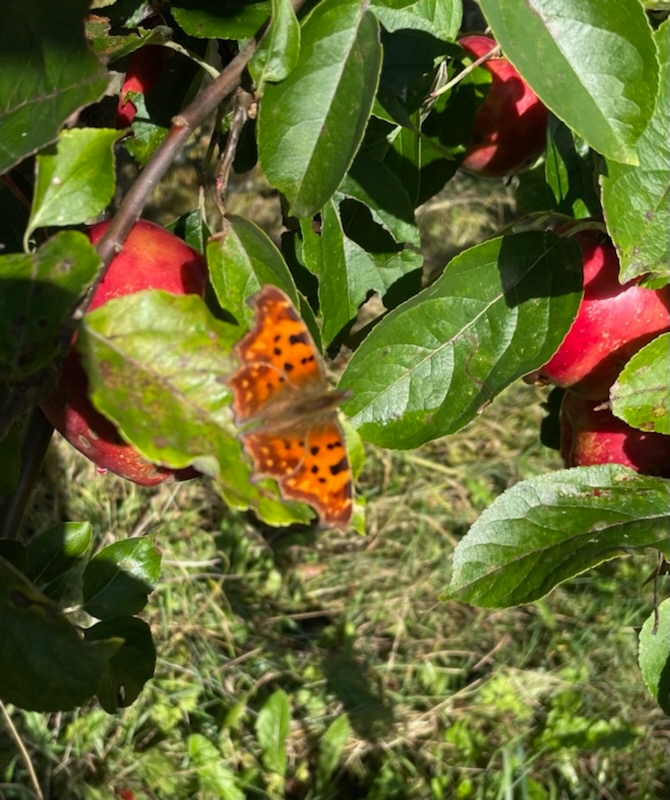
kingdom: Animalia
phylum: Arthropoda
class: Insecta
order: Lepidoptera
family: Nymphalidae
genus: Polygonia
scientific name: Polygonia c-album
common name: Det hvide C
